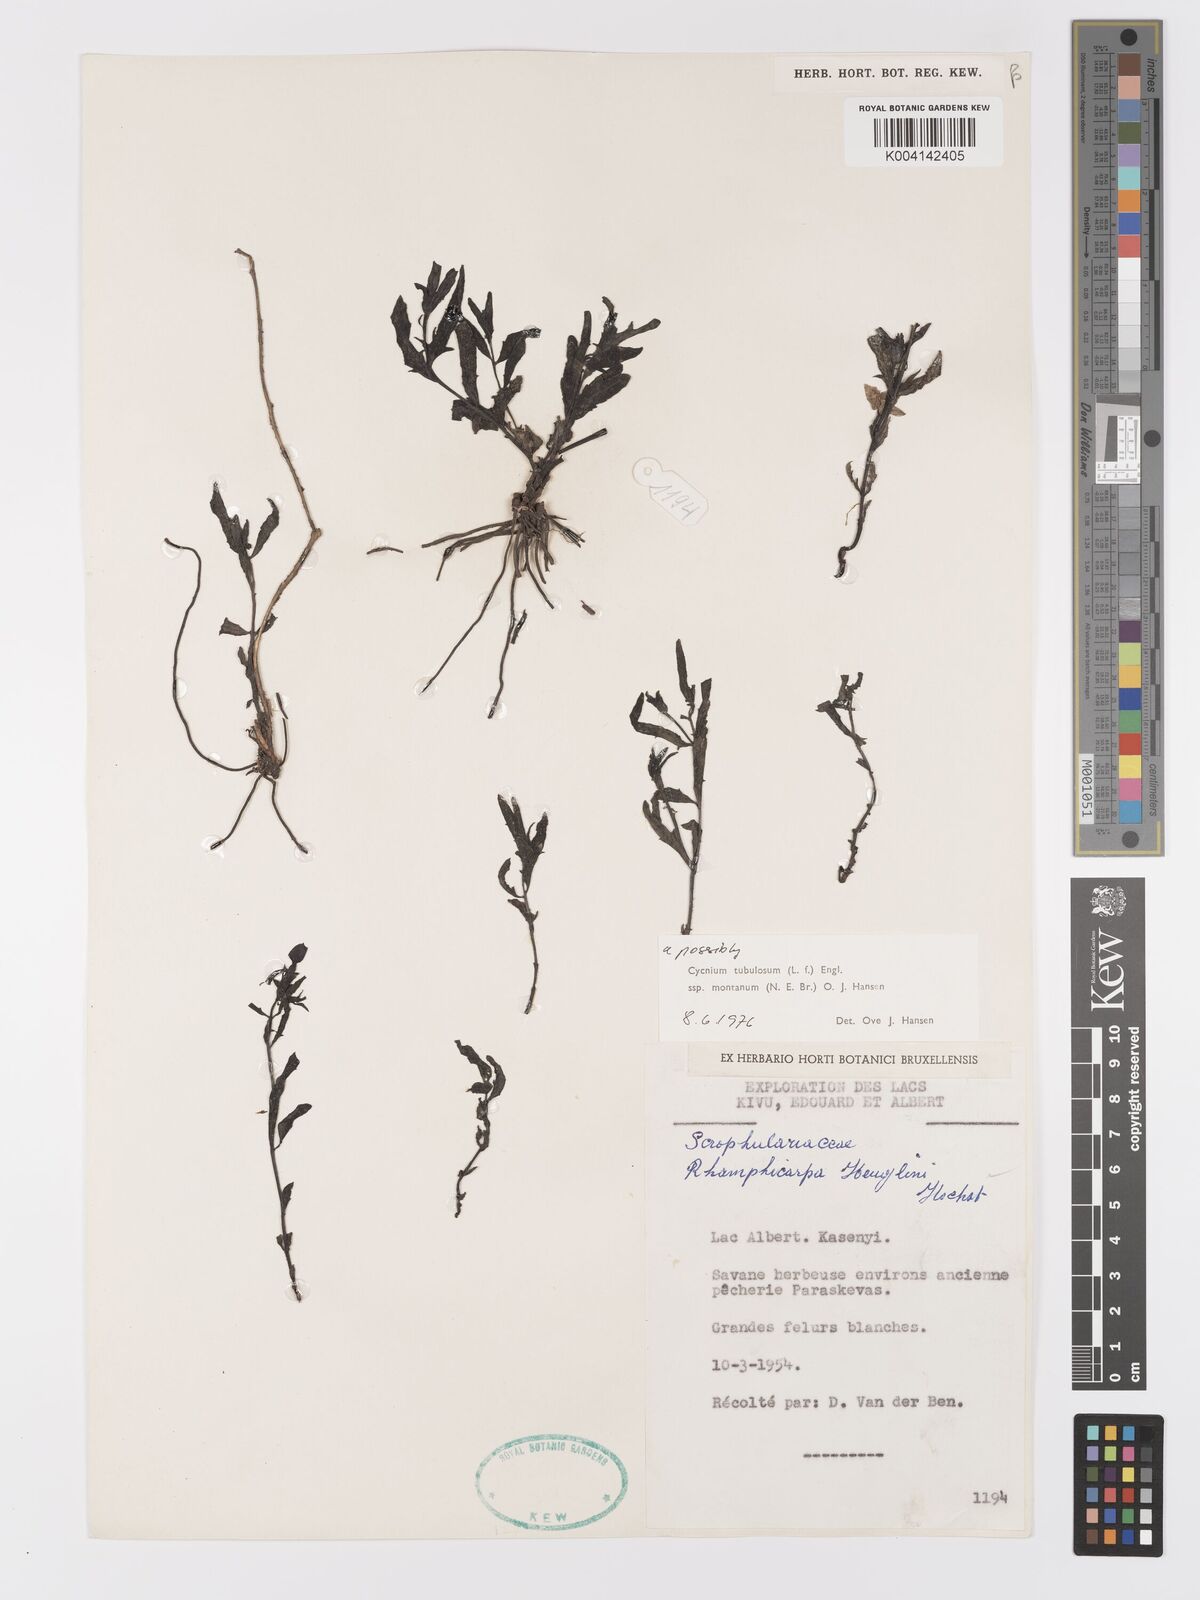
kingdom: Plantae
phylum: Tracheophyta
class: Magnoliopsida
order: Lamiales
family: Orobanchaceae
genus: Cycnium
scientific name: Cycnium tubulosum
